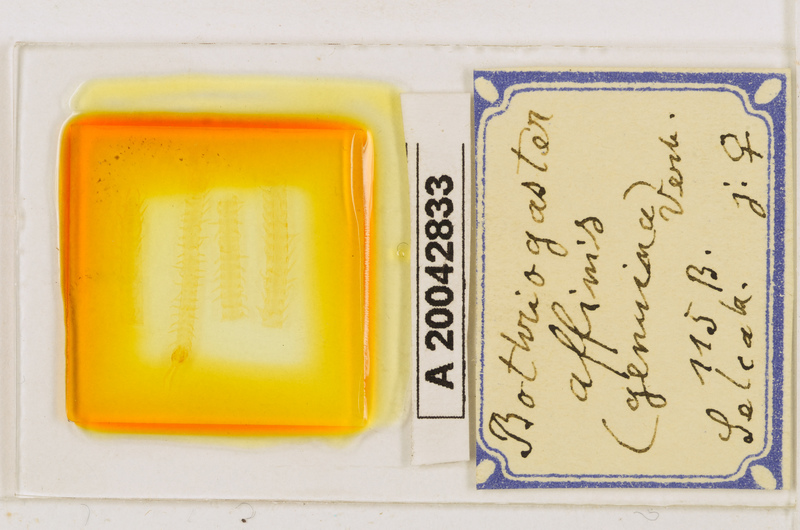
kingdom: Animalia
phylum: Arthropoda
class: Chilopoda
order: Geophilomorpha
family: Himantariidae
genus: Bothriogaster
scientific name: Bothriogaster signata
